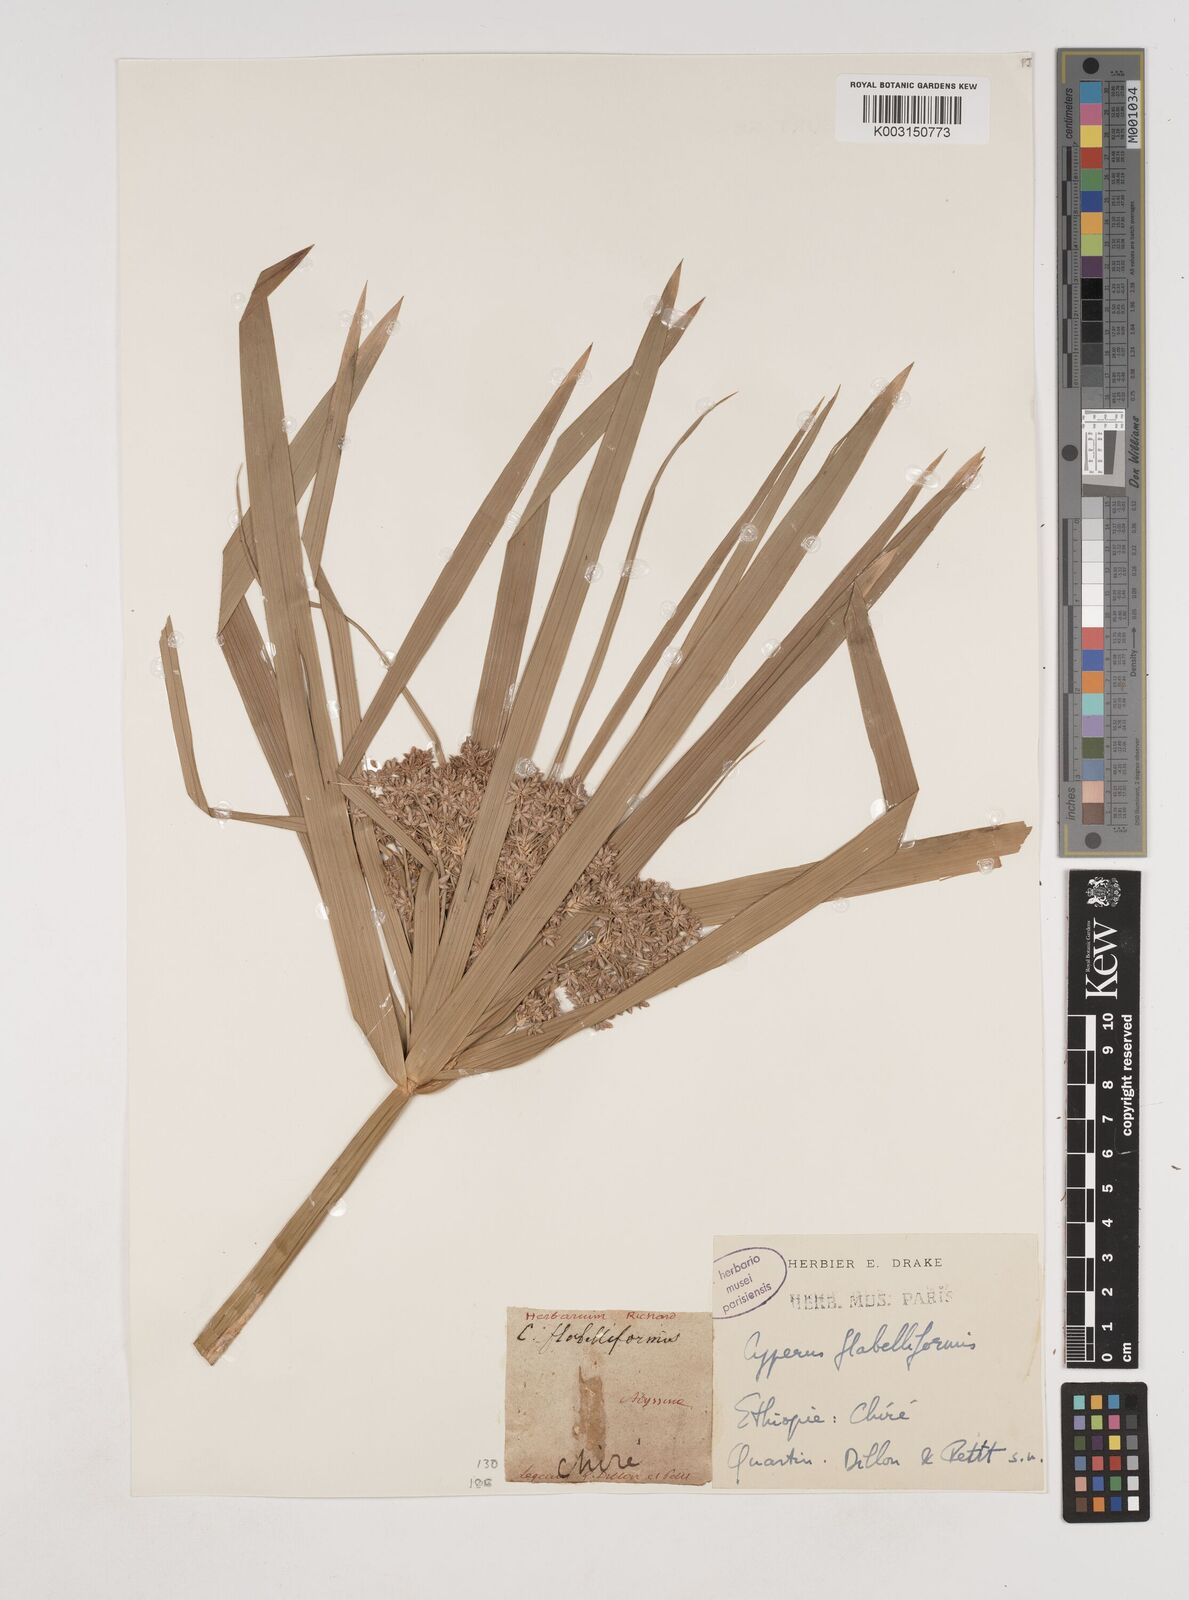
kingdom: Plantae
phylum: Tracheophyta
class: Liliopsida
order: Poales
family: Cyperaceae
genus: Cyperus
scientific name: Cyperus alternifolius
